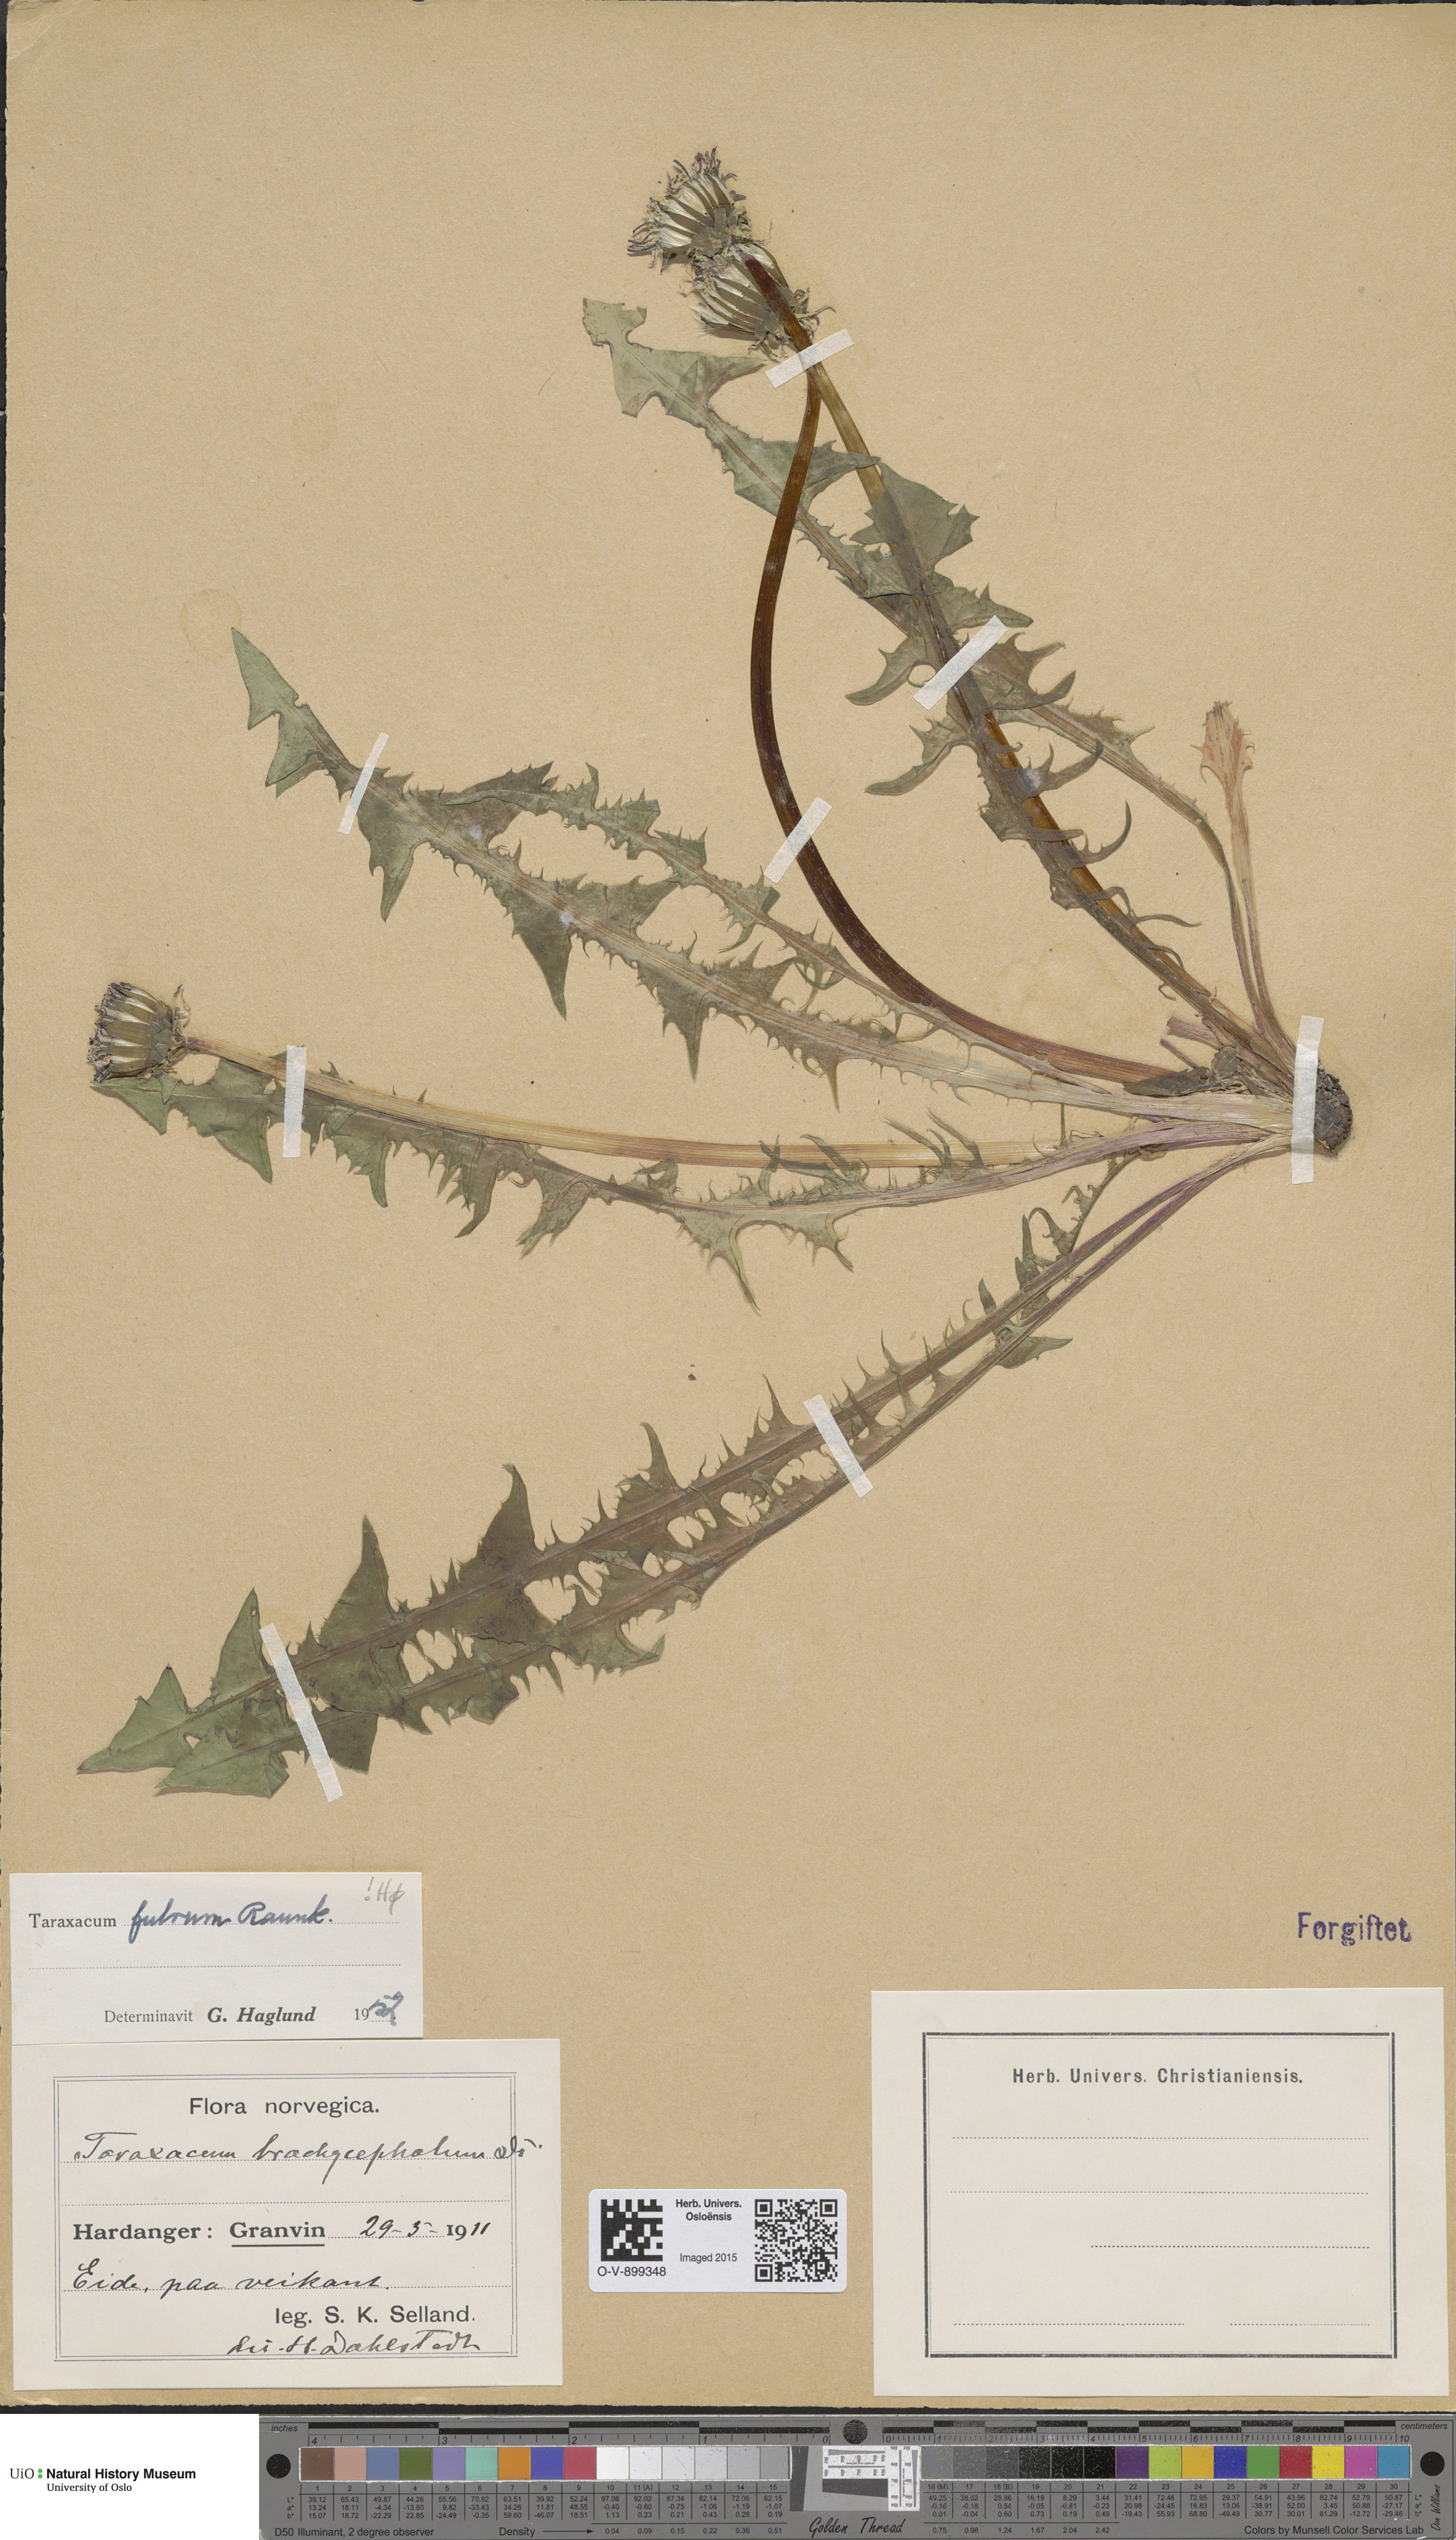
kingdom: Plantae
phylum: Tracheophyta
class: Magnoliopsida
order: Asterales
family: Asteraceae
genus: Taraxacum
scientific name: Taraxacum fulvum
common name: Cinnamon-fruited dandelion
